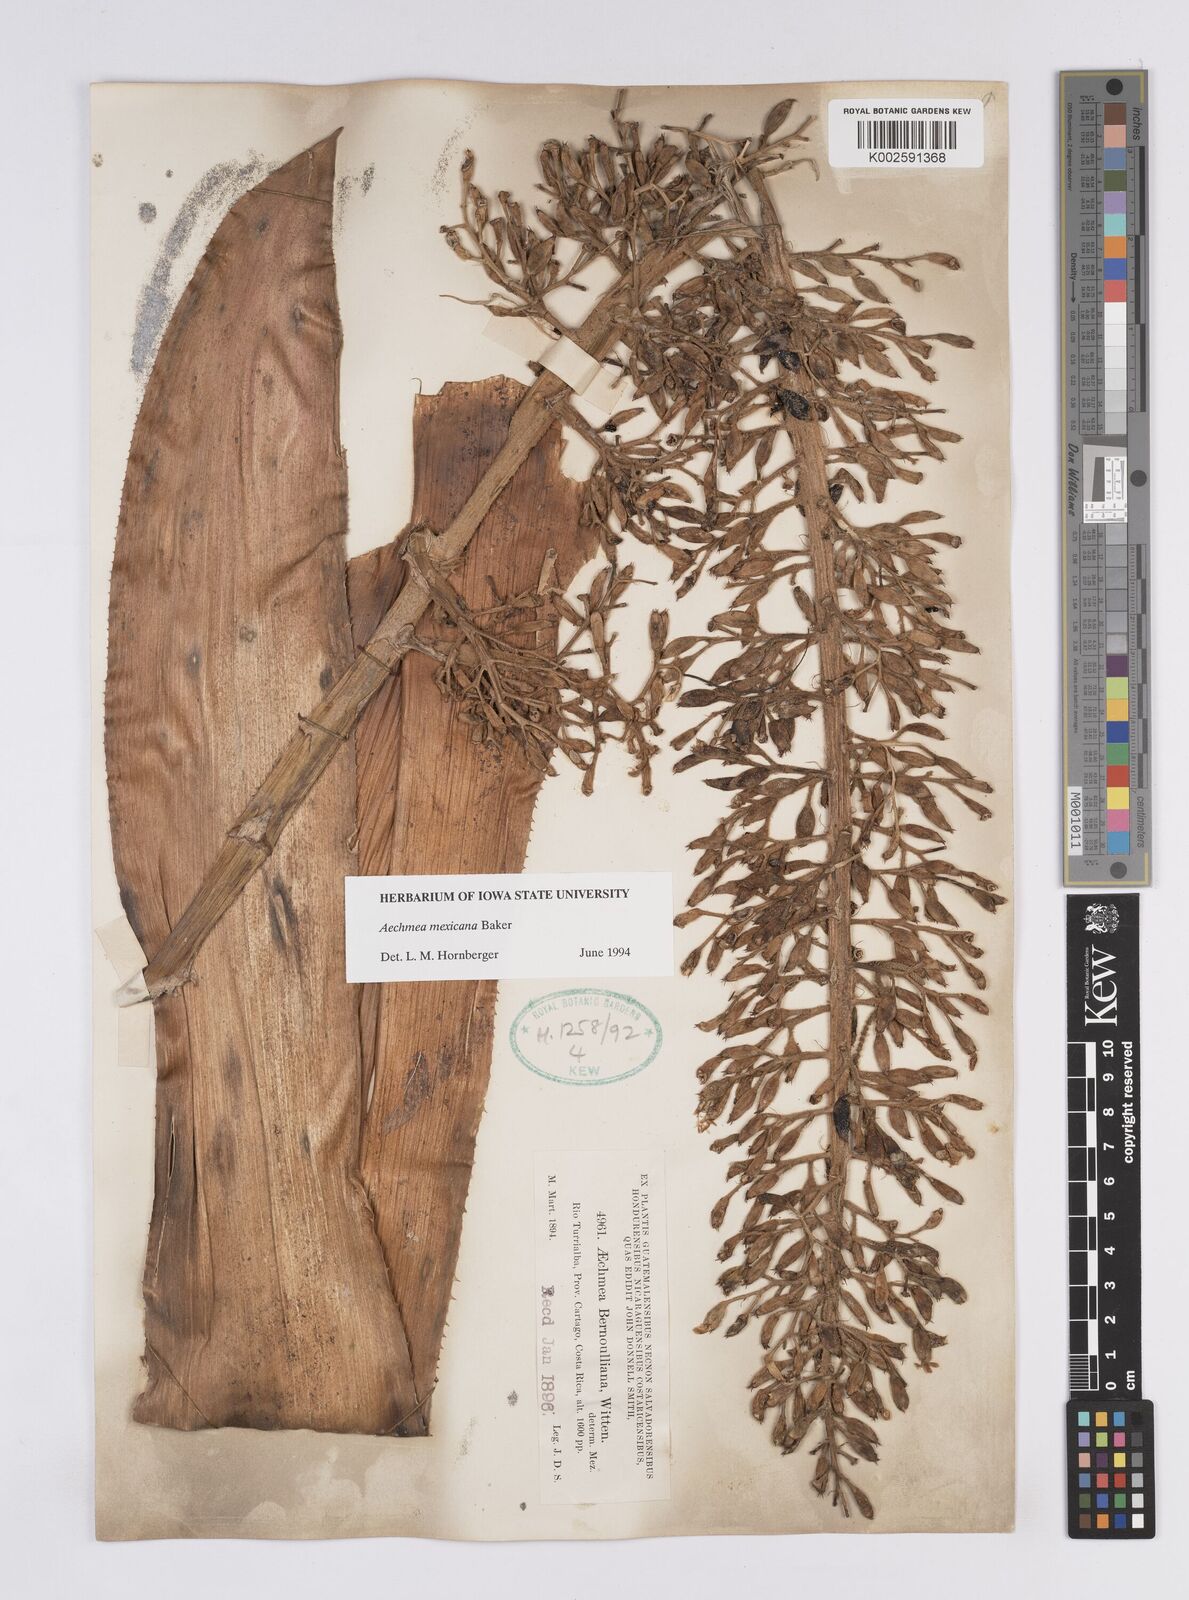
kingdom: Plantae
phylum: Tracheophyta
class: Liliopsida
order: Poales
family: Bromeliaceae
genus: Aechmea
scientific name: Aechmea mexicana
